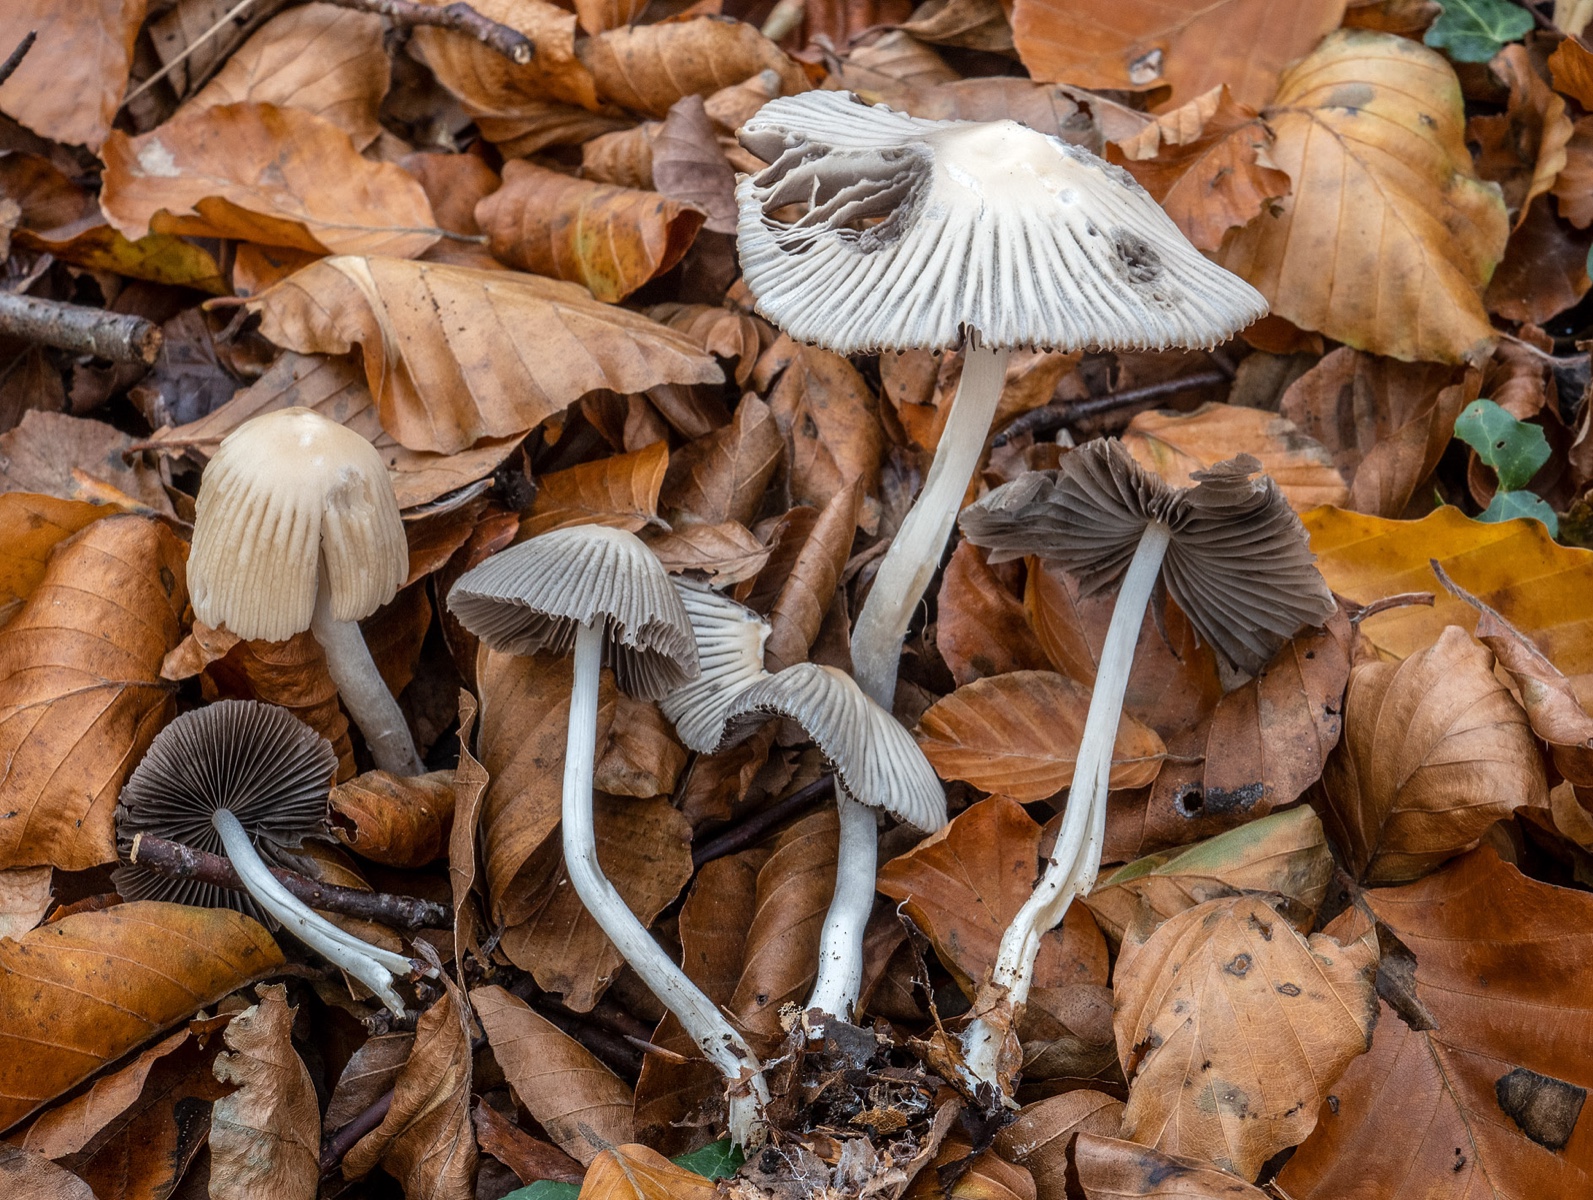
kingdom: Fungi
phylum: Basidiomycota
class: Agaricomycetes
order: Agaricales
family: Psathyrellaceae
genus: Tulosesus
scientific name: Tulosesus impatiens
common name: furet blækhat
